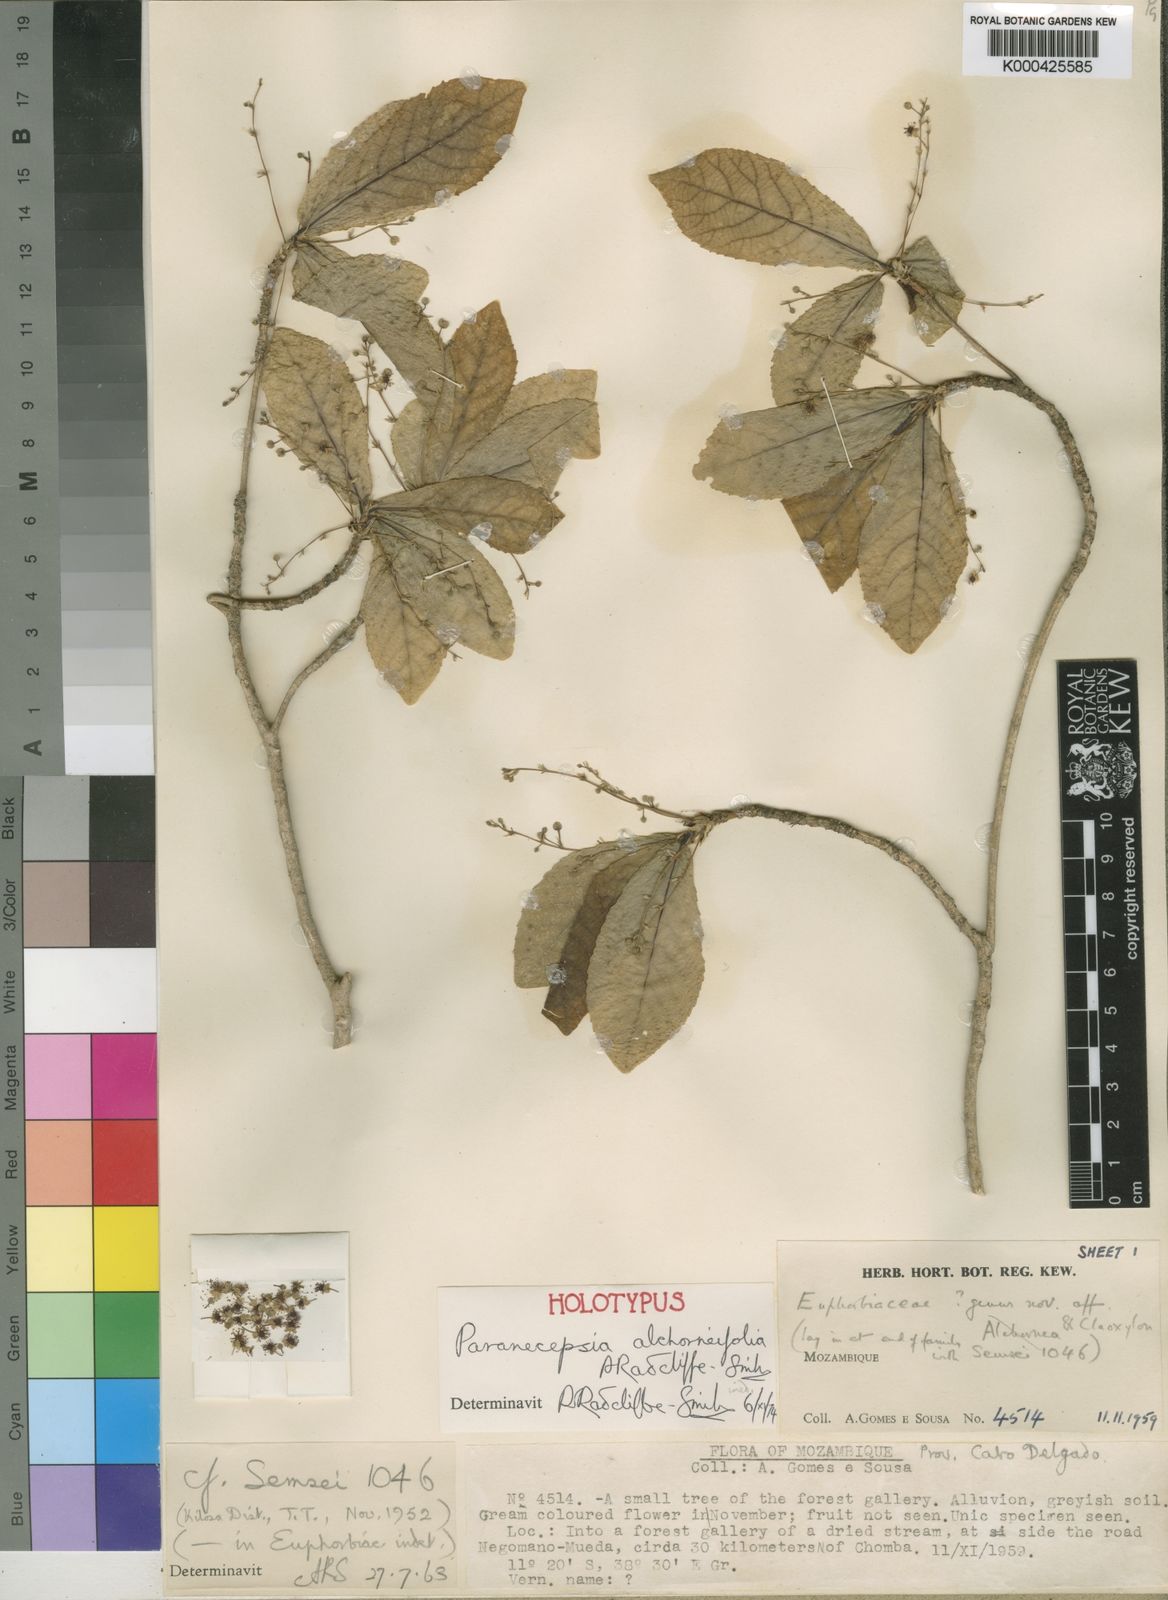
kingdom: Plantae
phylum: Tracheophyta
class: Magnoliopsida
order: Malpighiales
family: Euphorbiaceae
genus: Paranecepsia
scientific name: Paranecepsia alchorneifolia
